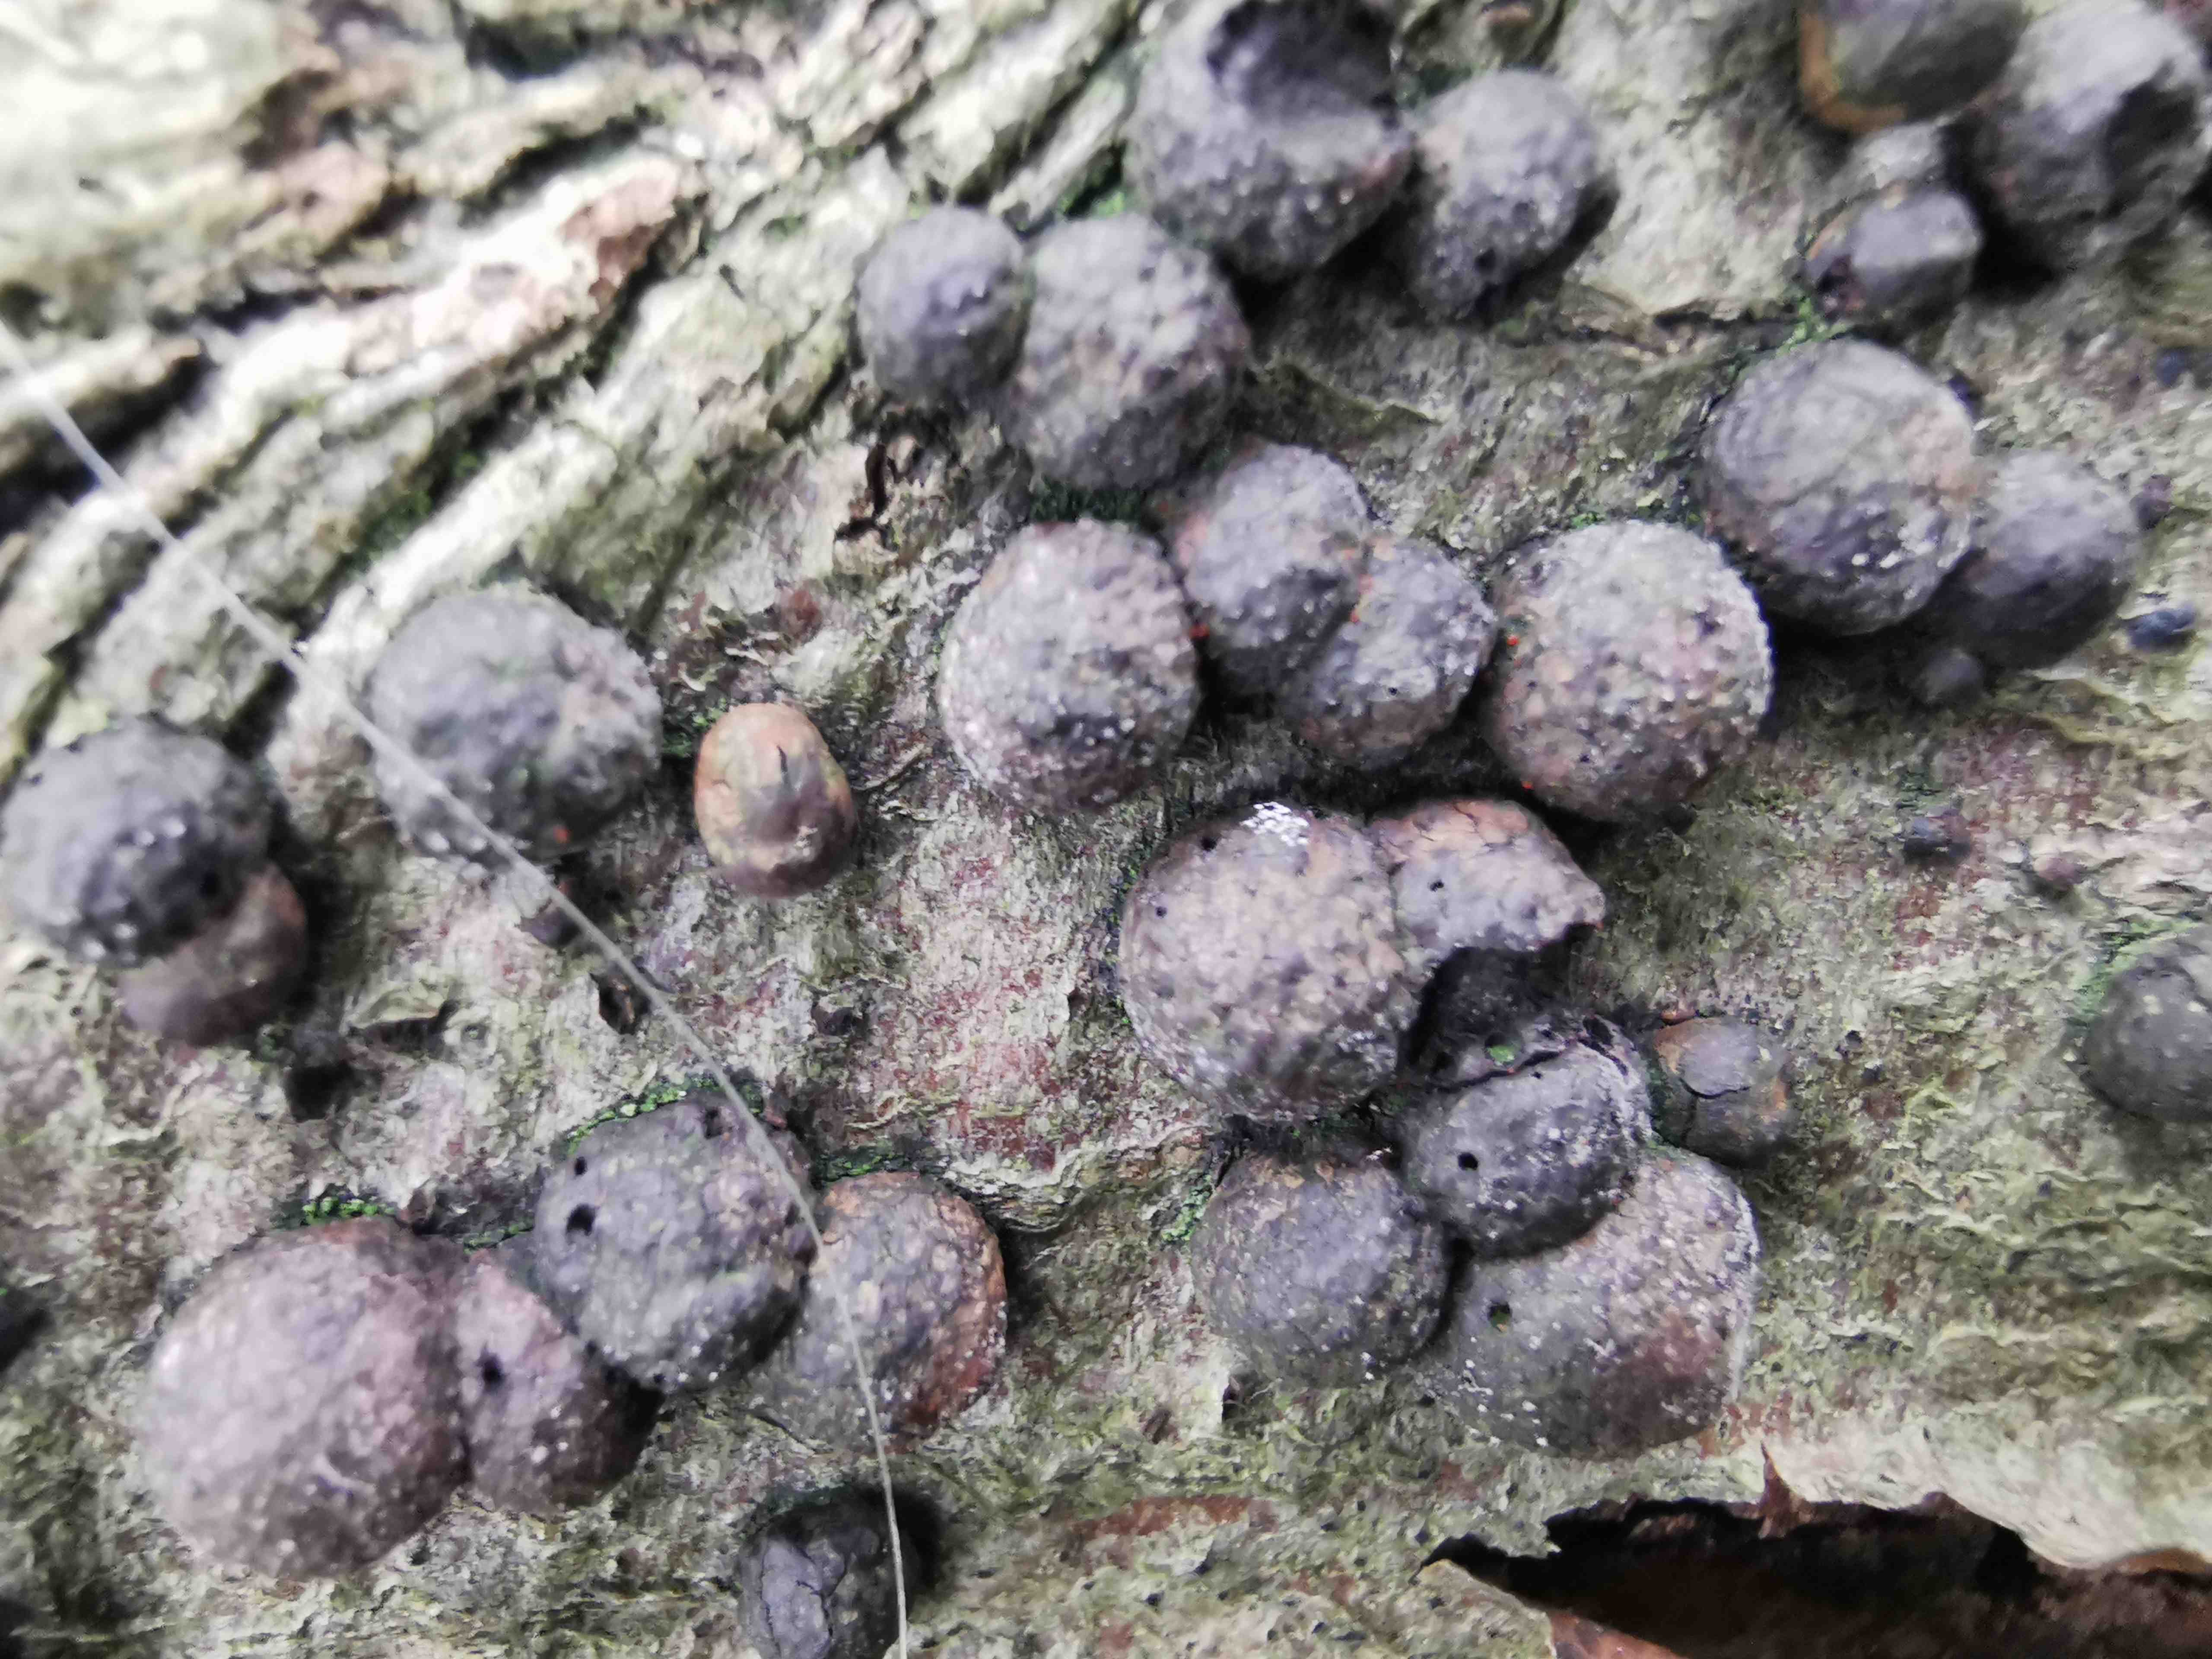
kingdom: Fungi
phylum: Ascomycota
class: Sordariomycetes
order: Xylariales
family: Hypoxylaceae
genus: Hypoxylon
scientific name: Hypoxylon fragiforme
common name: kuljordbær
